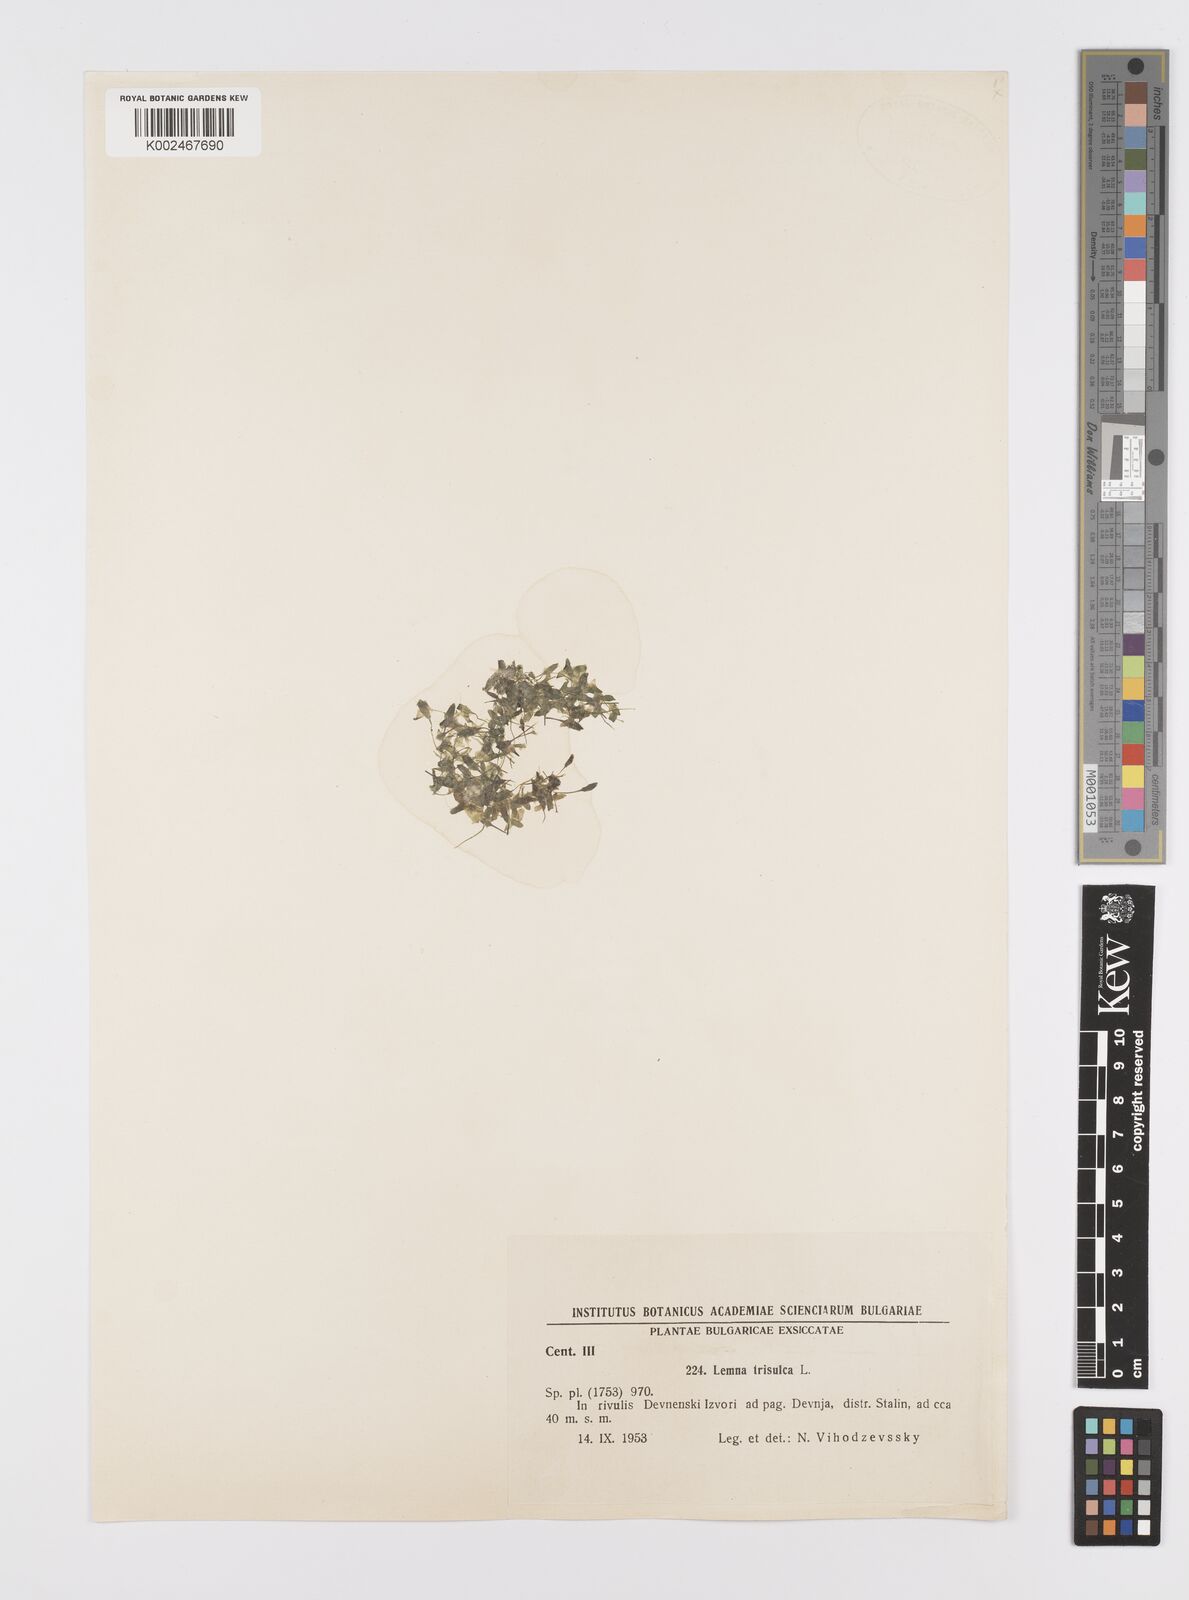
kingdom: Plantae
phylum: Tracheophyta
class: Liliopsida
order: Alismatales
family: Araceae
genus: Lemna
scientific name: Lemna trisulca
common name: Ivy-leaved duckweed
